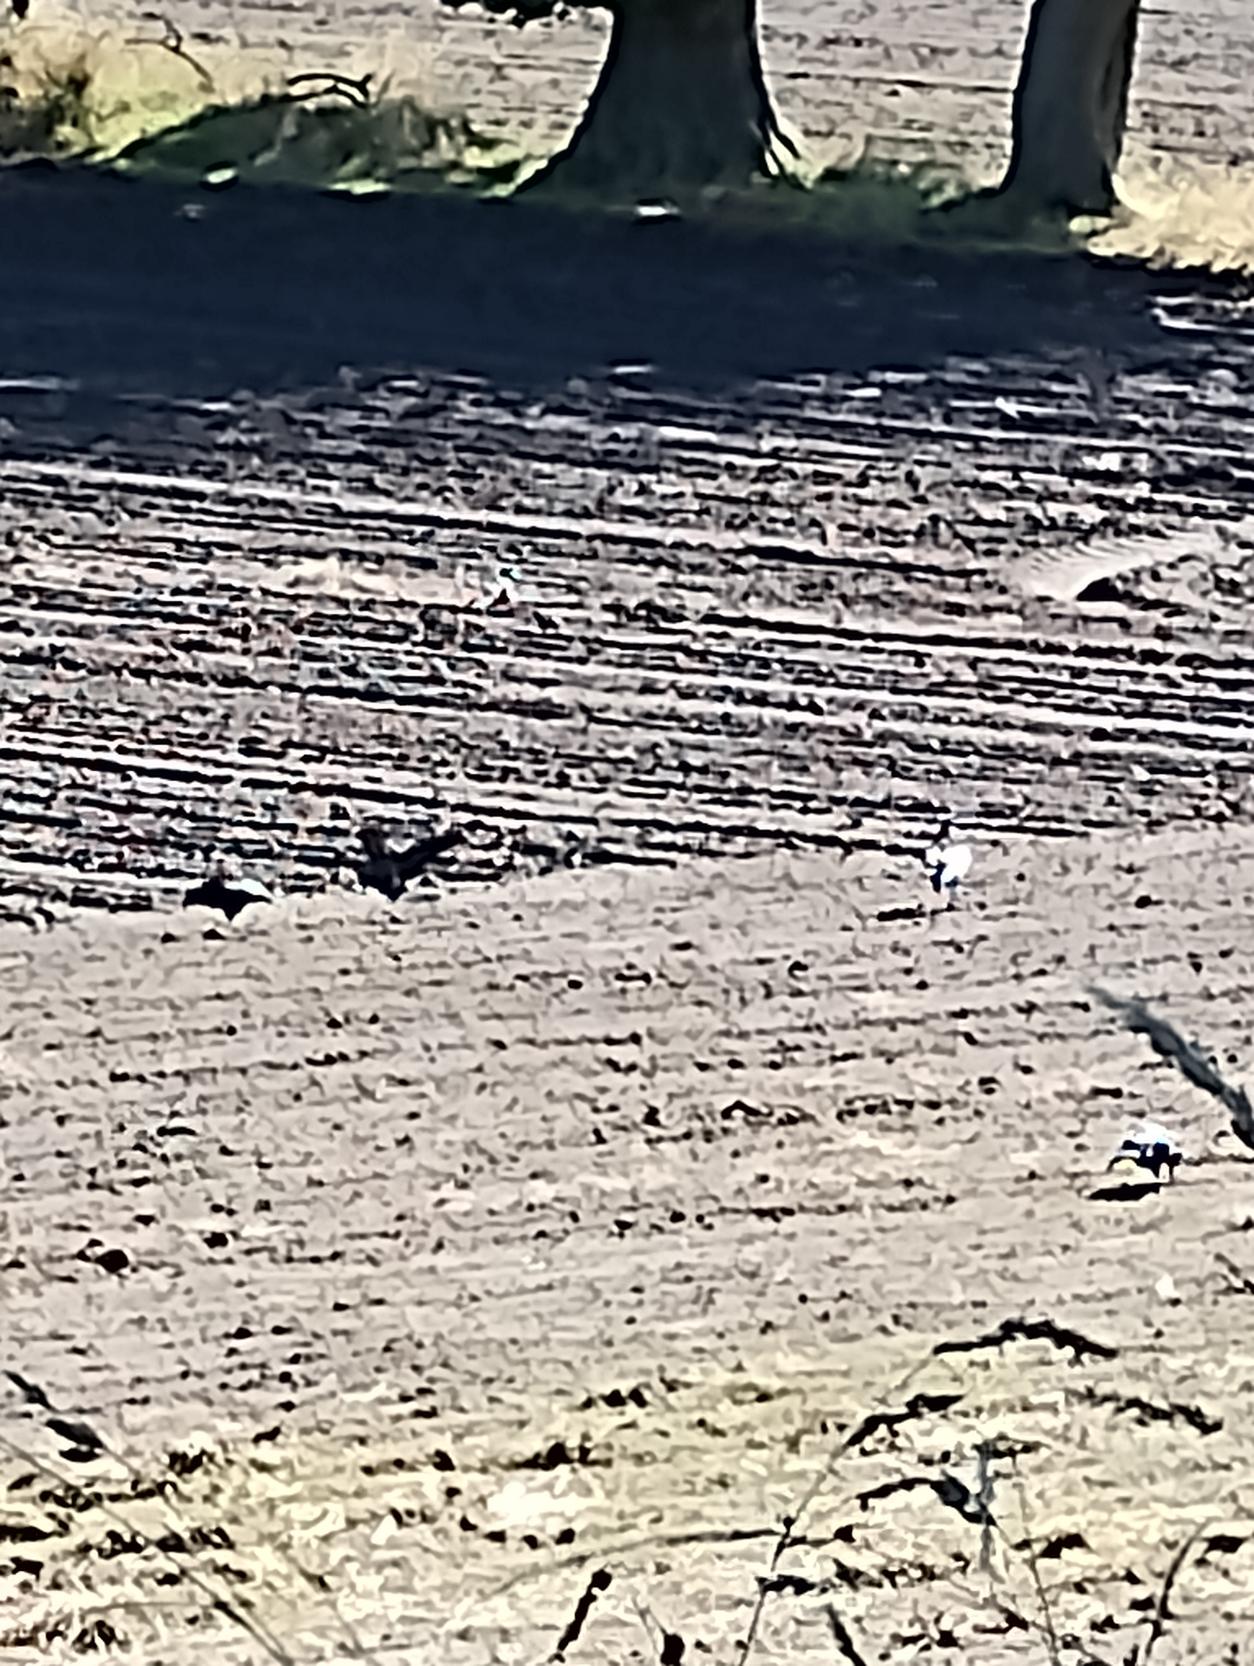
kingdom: Animalia
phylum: Chordata
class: Aves
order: Passeriformes
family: Corvidae
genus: Corvus
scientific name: Corvus frugilegus
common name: Råge
